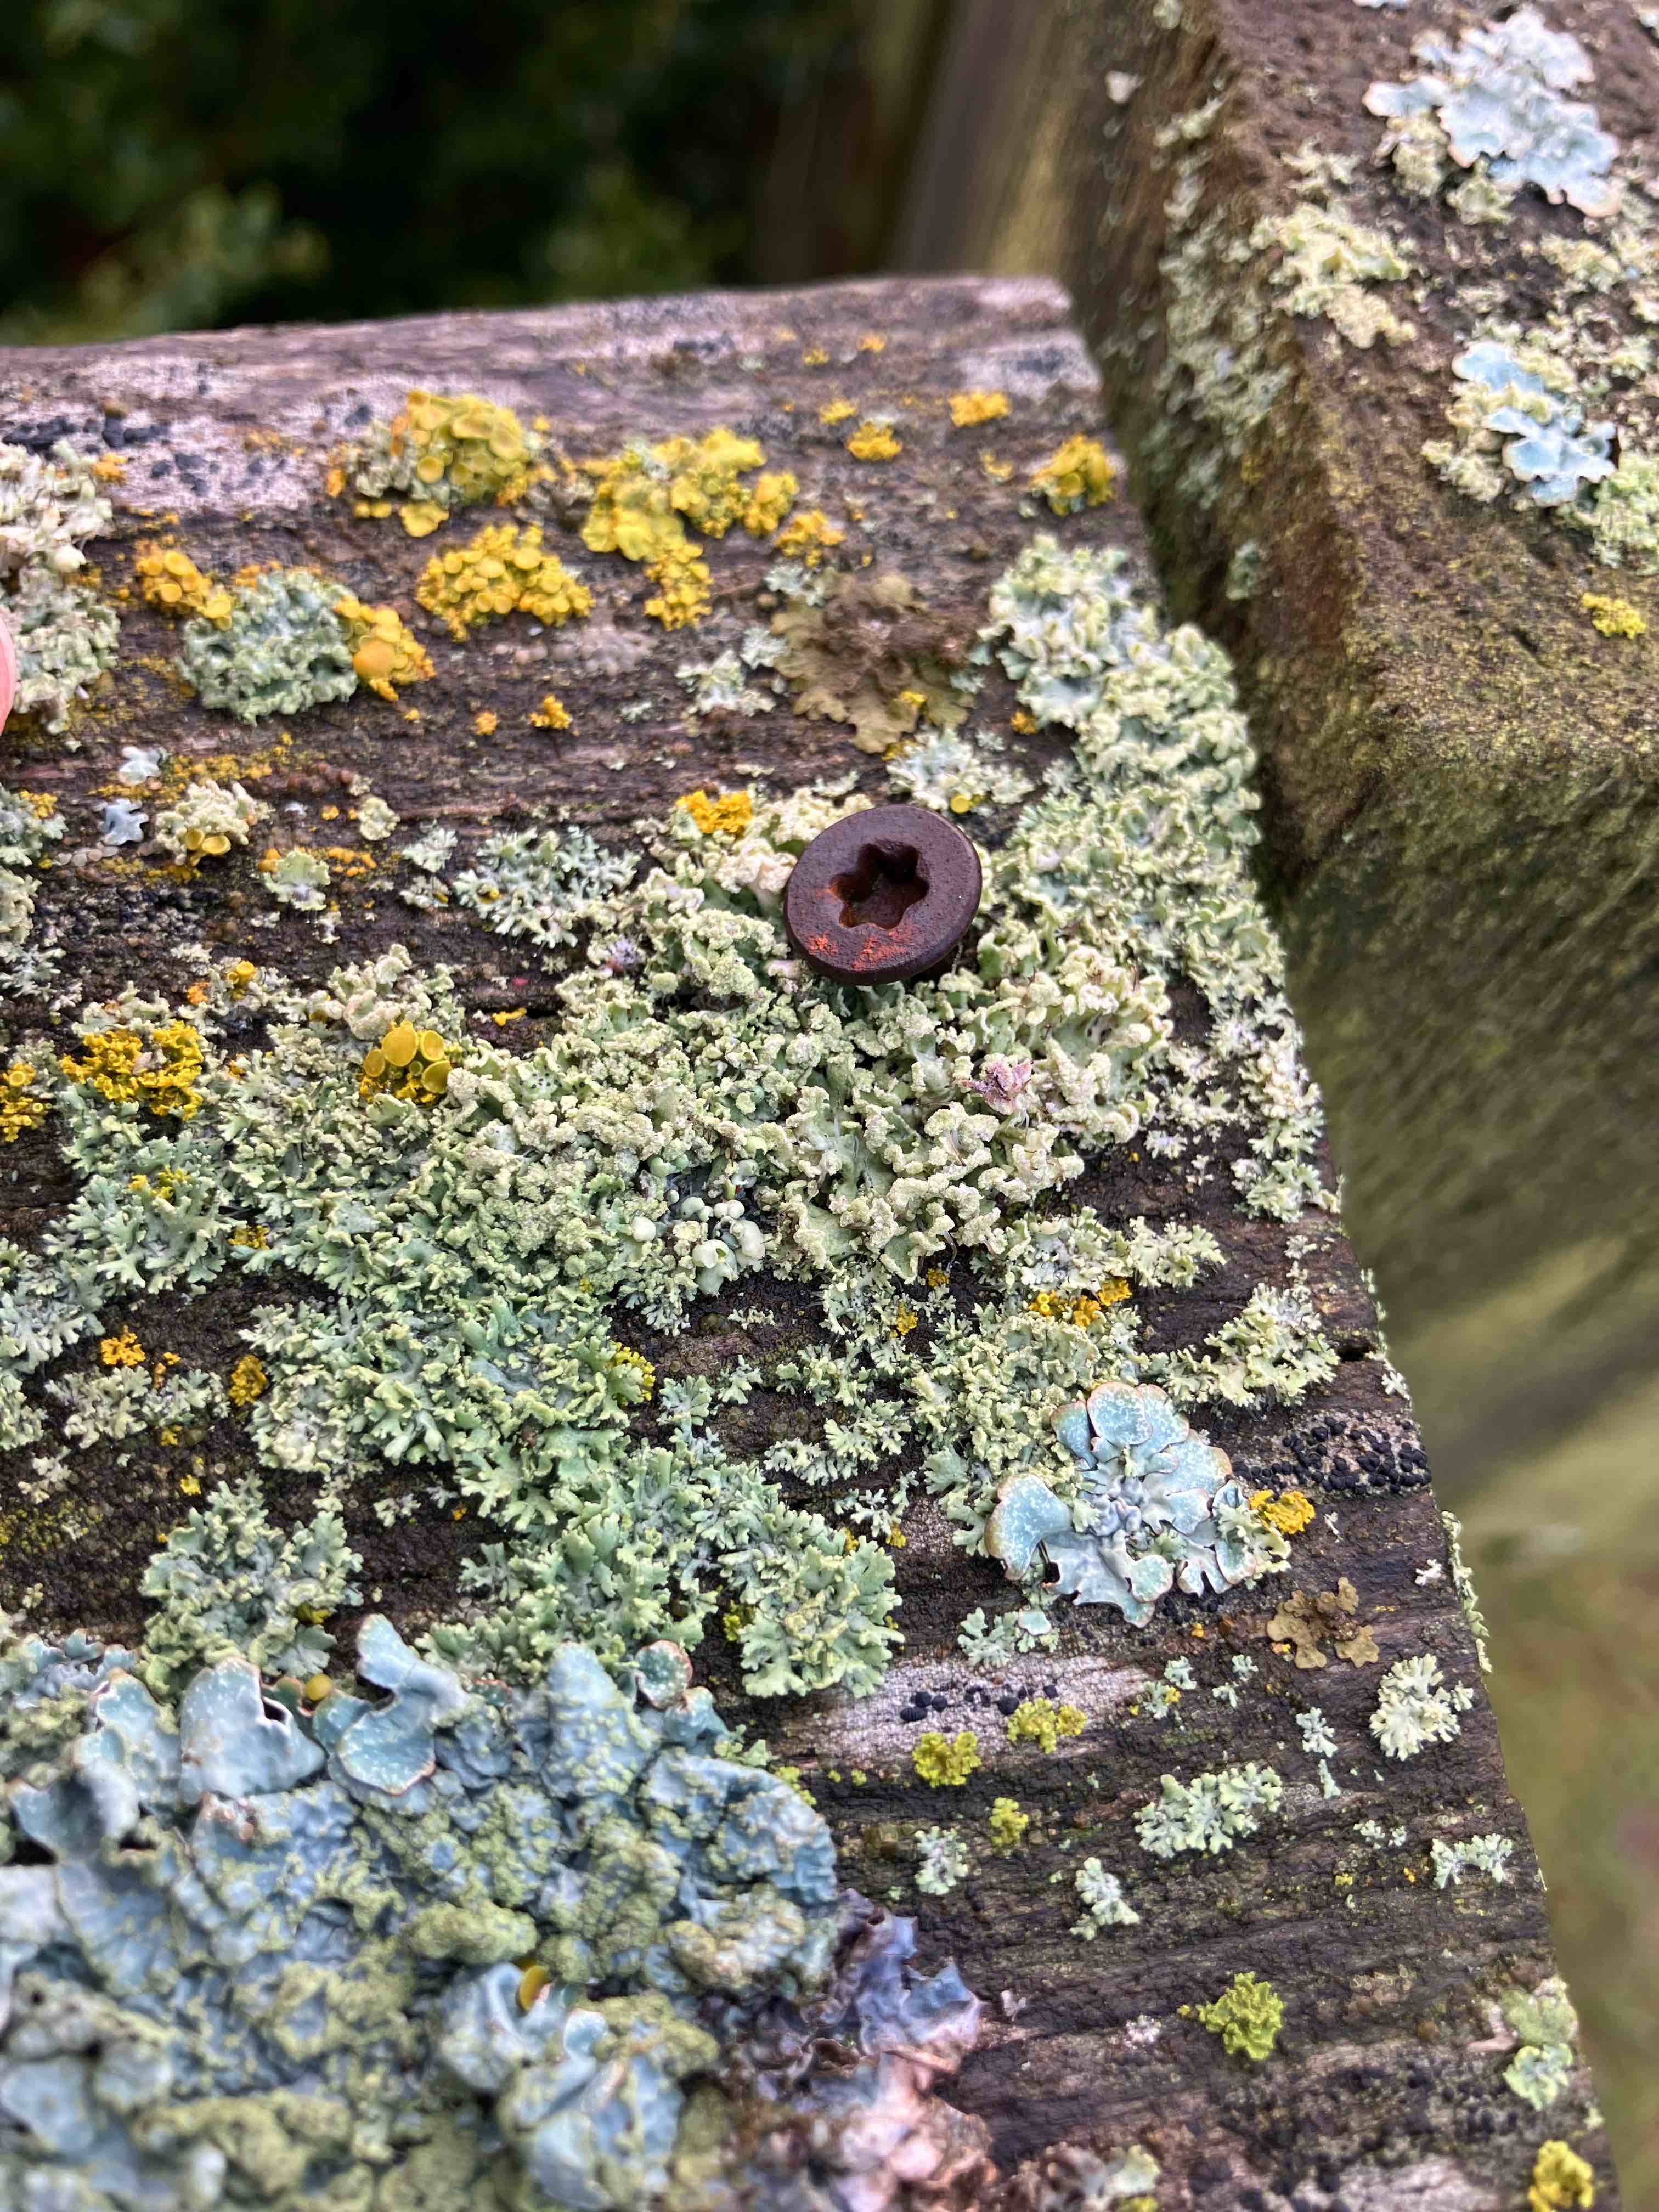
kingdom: Fungi
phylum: Ascomycota
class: Lecanoromycetes
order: Caliciales
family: Physciaceae
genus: Physcia
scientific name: Physcia tenella
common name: spæd rosetlav
